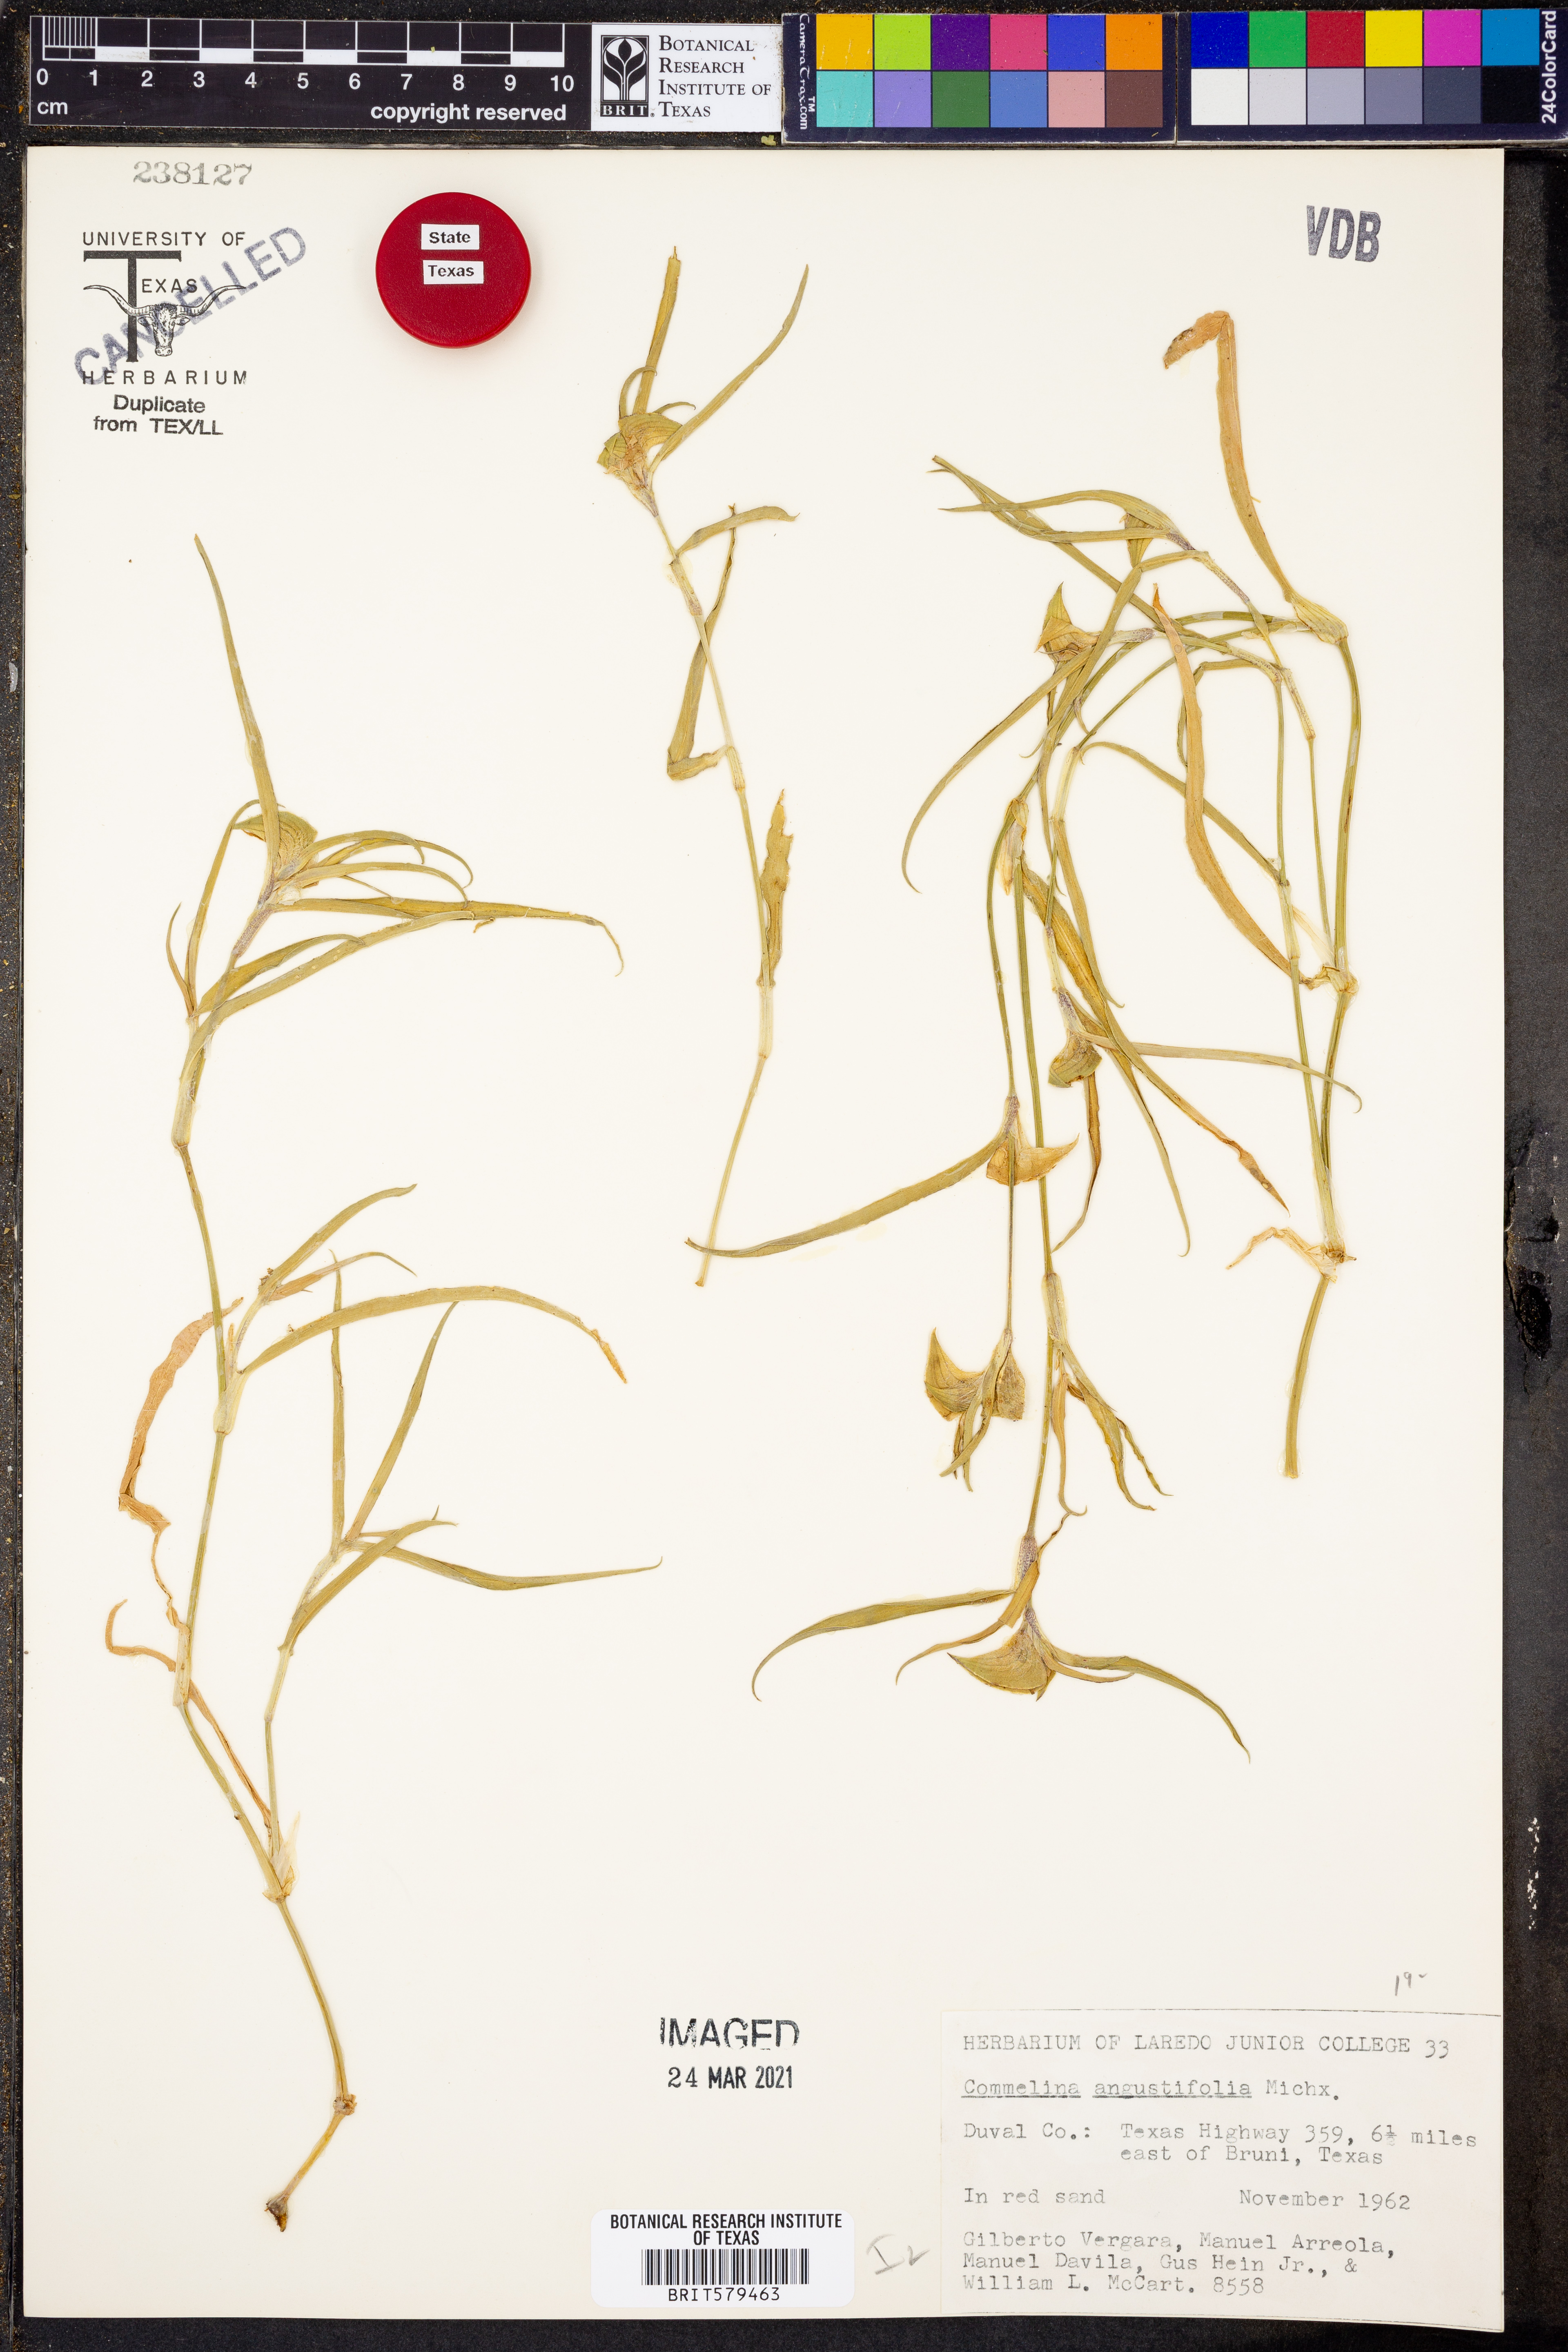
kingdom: Plantae
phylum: Tracheophyta
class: Liliopsida
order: Commelinales
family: Commelinaceae
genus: Commelina
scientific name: Commelina erecta
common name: Blousel blommetjie
